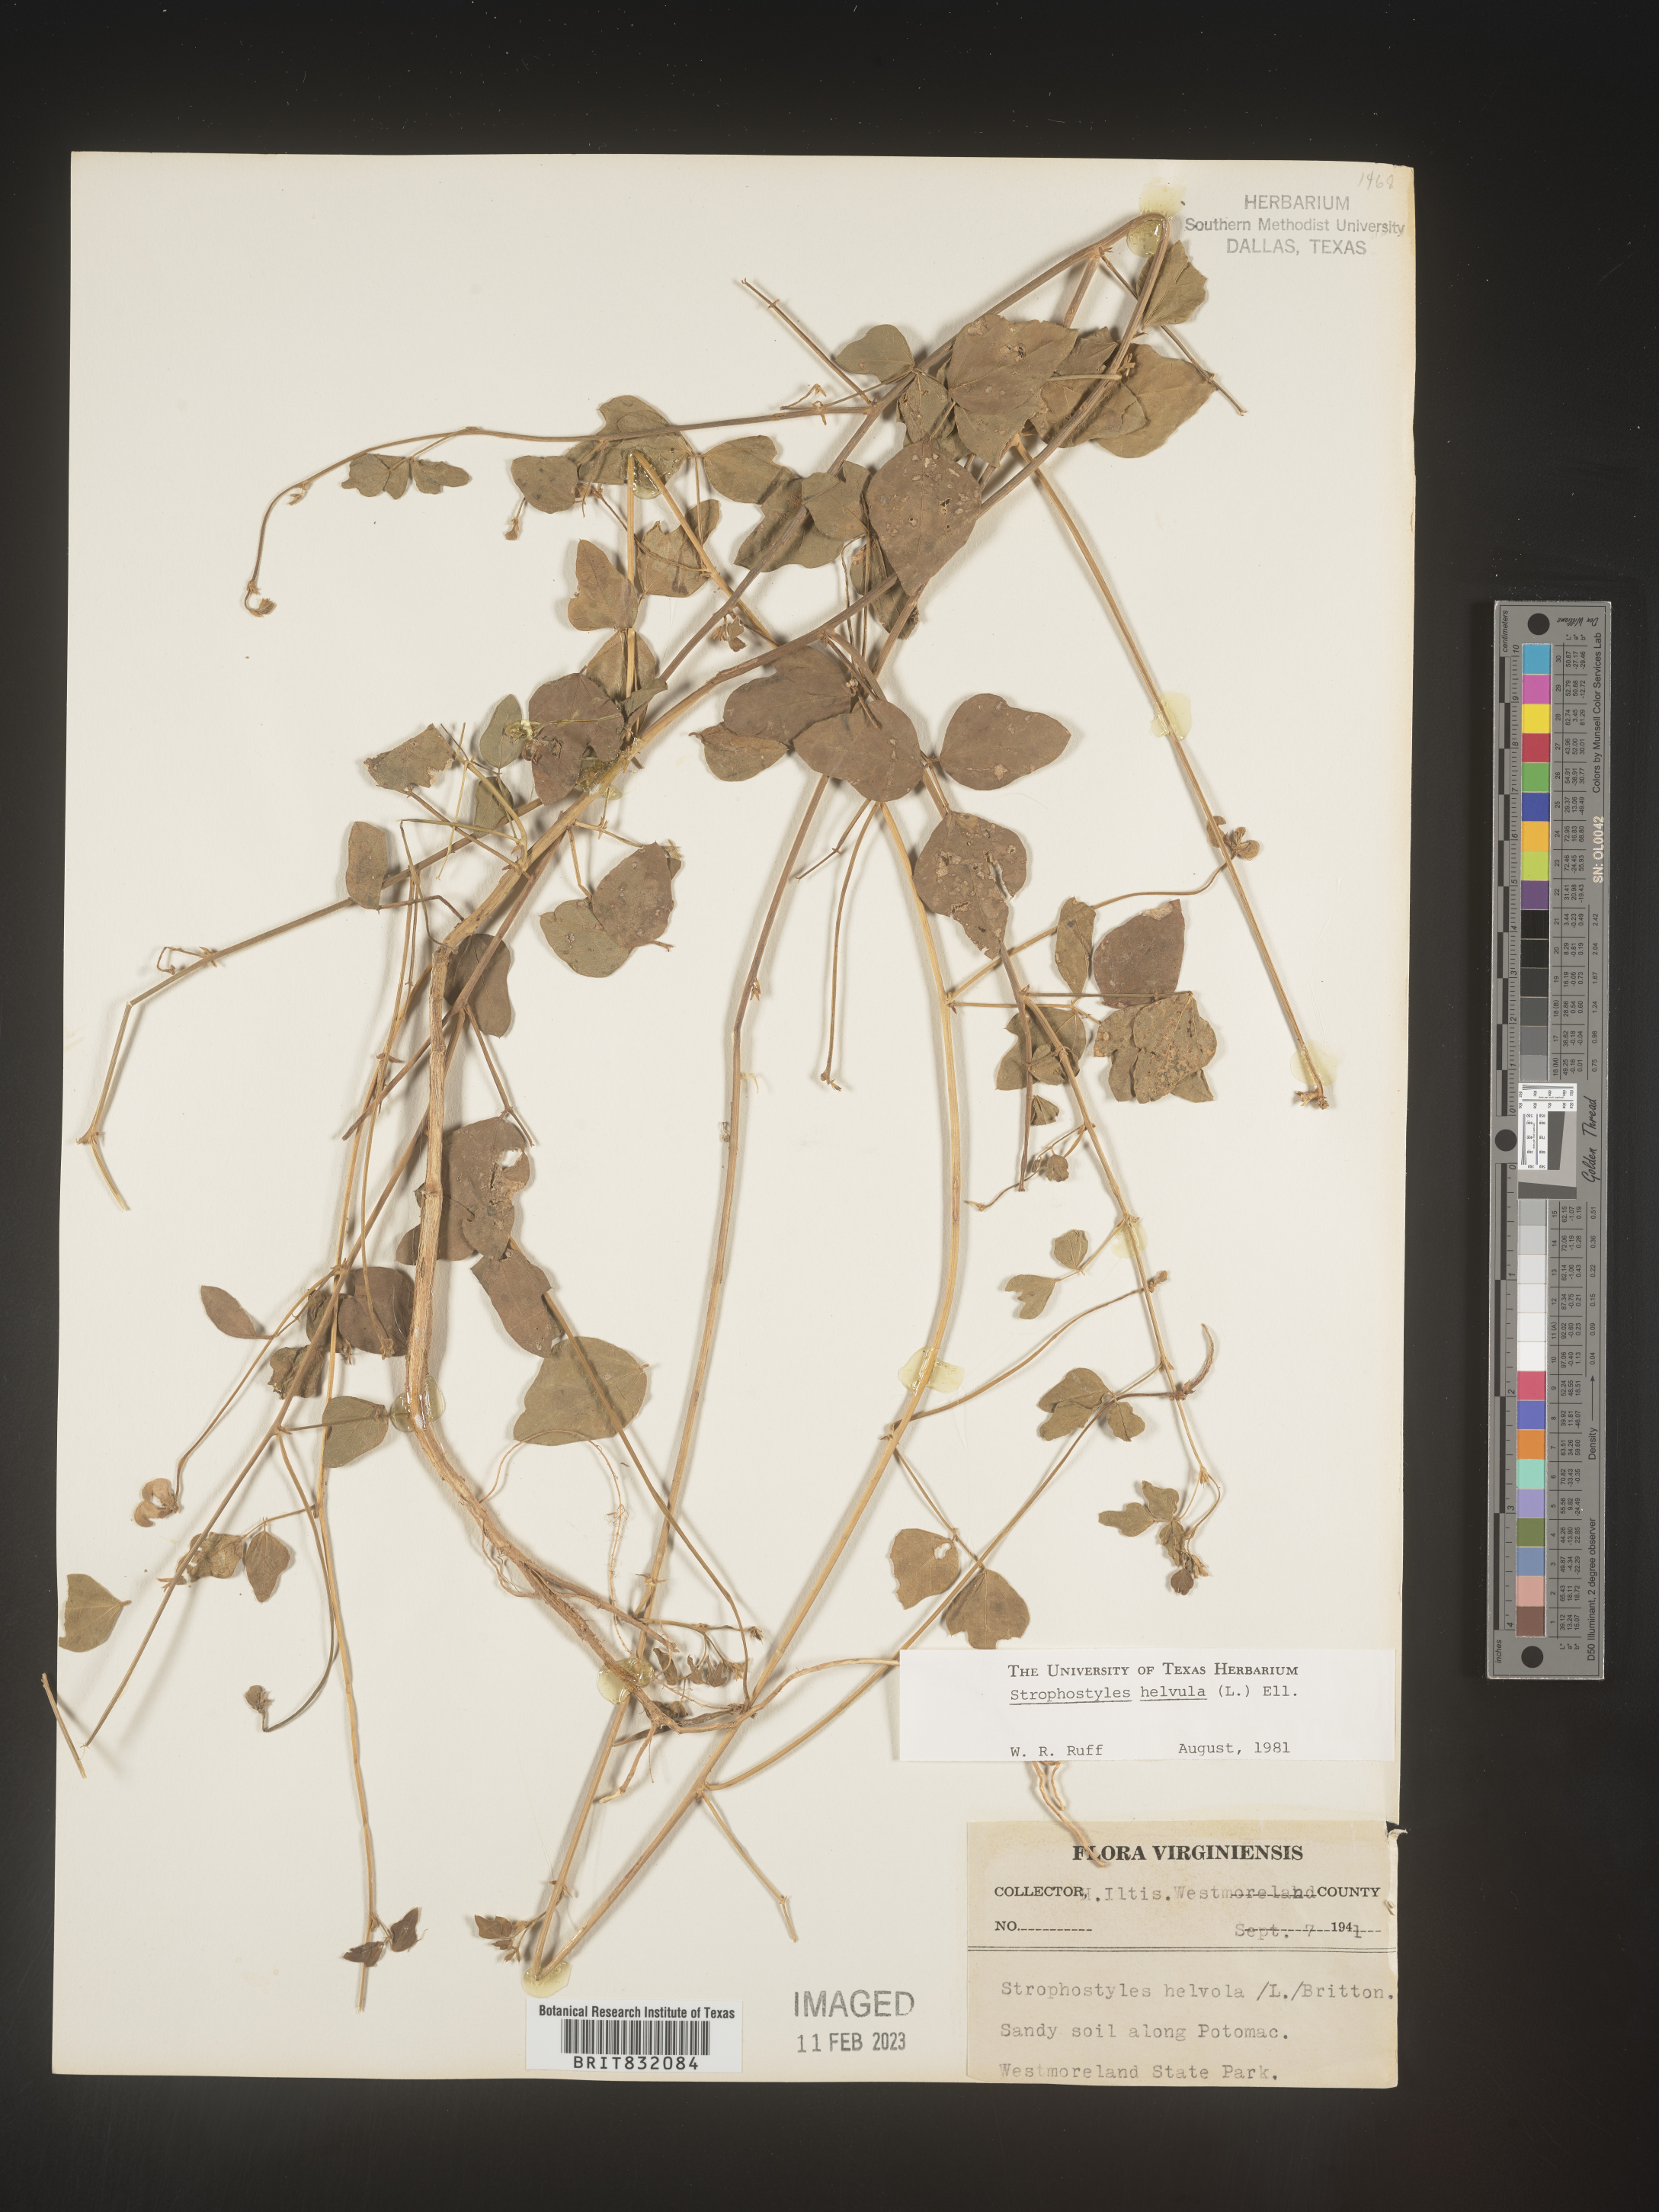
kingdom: Plantae
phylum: Tracheophyta
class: Magnoliopsida
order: Fabales
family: Fabaceae
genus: Strophostyles
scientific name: Strophostyles helvola
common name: Trailing wild bean
